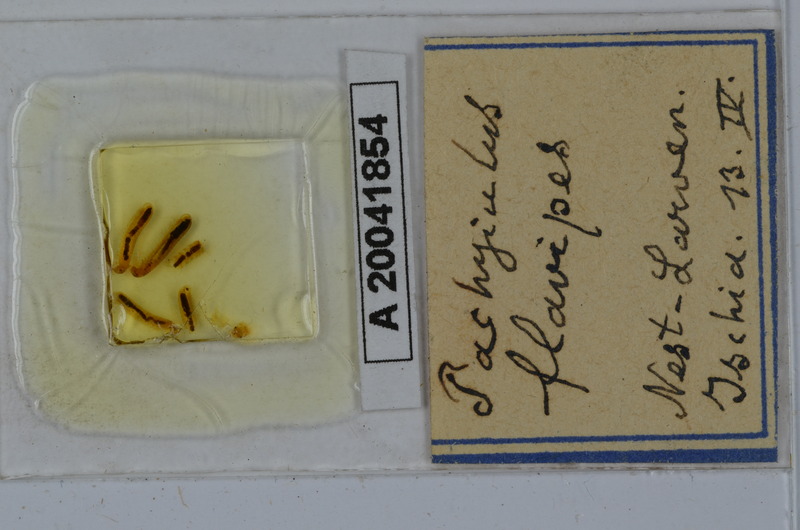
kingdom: Animalia
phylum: Arthropoda
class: Diplopoda
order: Julida
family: Julidae
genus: Pachyiulus
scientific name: Pachyiulus flavipes
